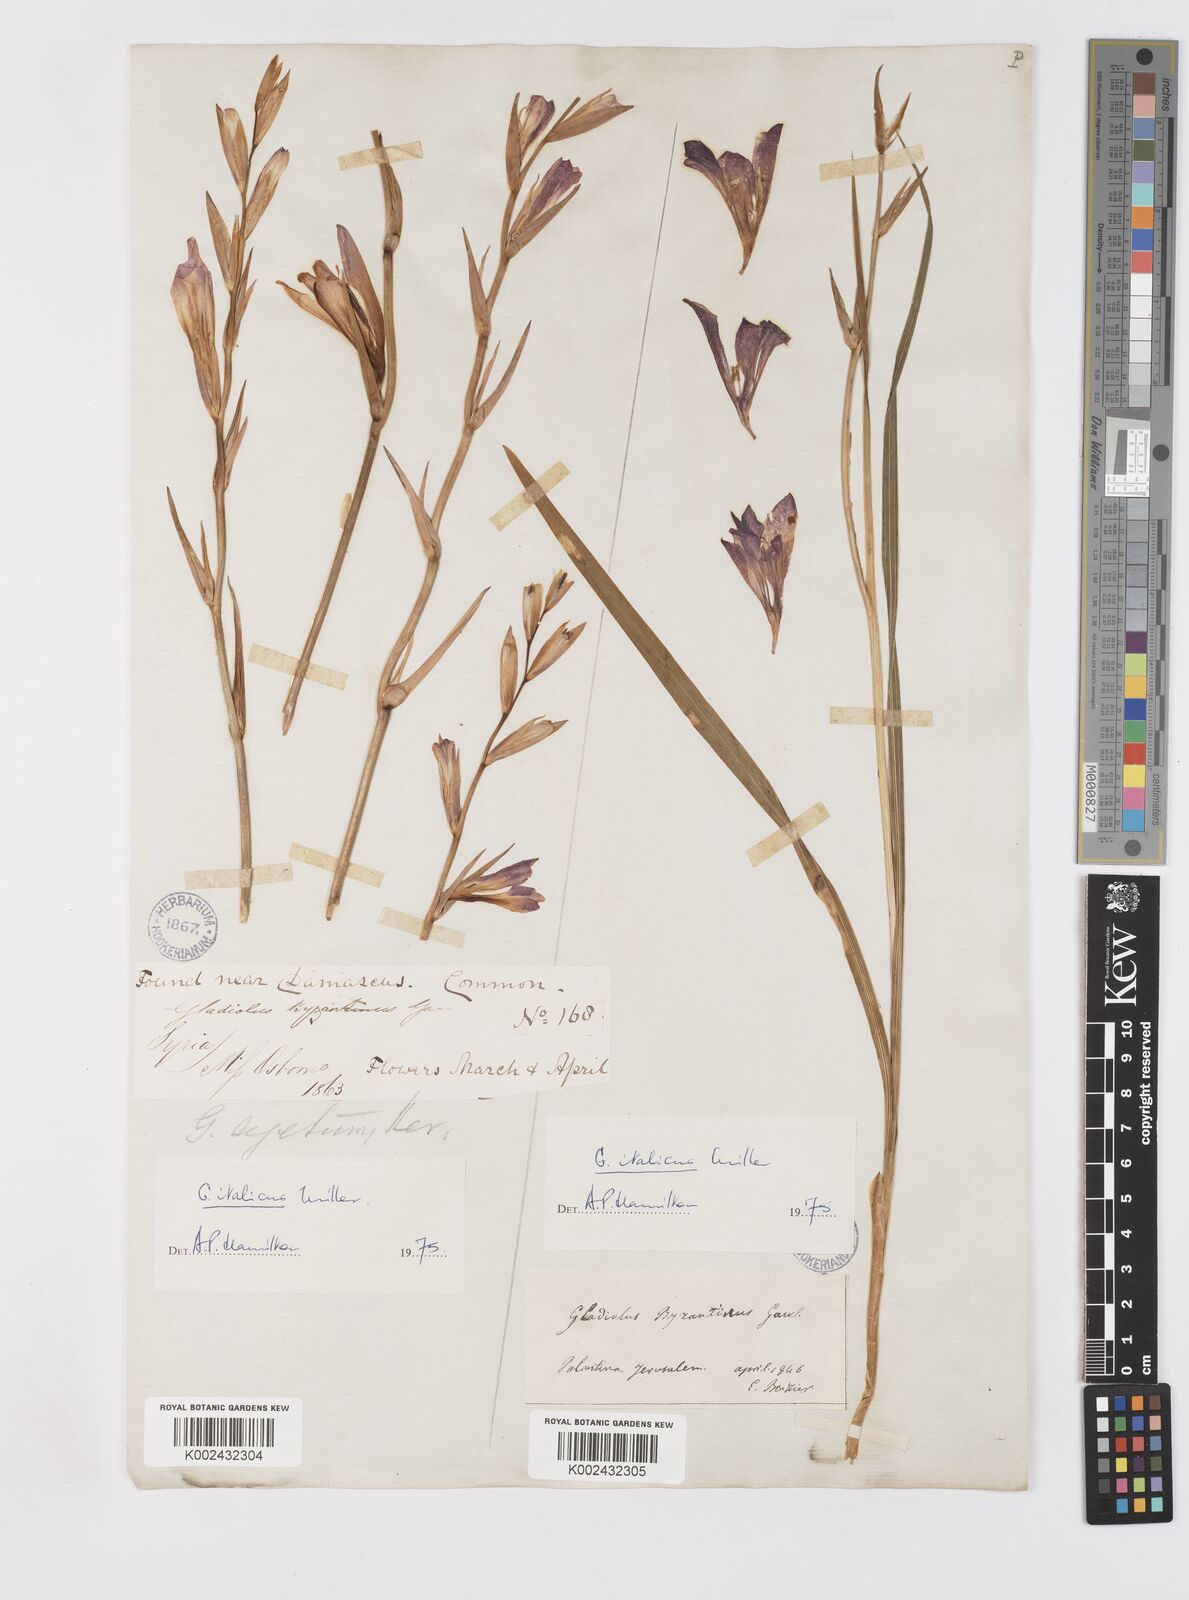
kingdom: Plantae
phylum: Tracheophyta
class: Liliopsida
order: Asparagales
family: Iridaceae
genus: Gladiolus
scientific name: Gladiolus italicus
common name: Field gladiolus
